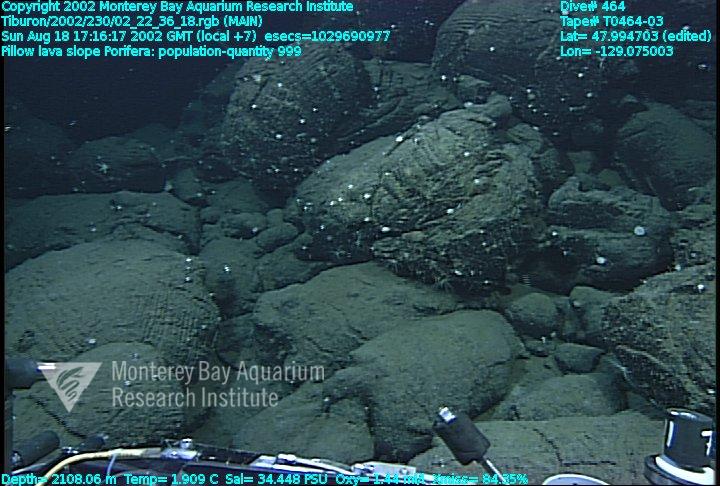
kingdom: Animalia
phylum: Porifera
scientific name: Porifera
